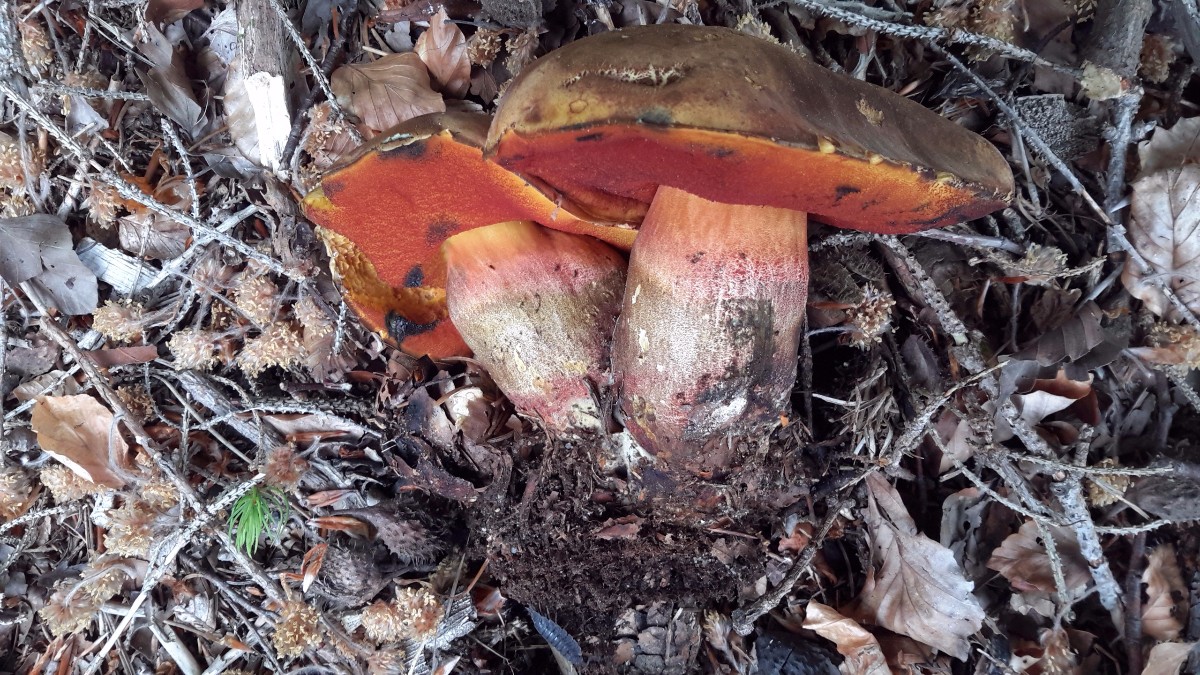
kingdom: Fungi
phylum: Basidiomycota
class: Agaricomycetes
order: Boletales
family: Boletaceae
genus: Neoboletus
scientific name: Neoboletus erythropus
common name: punktstokket indigorørhat
